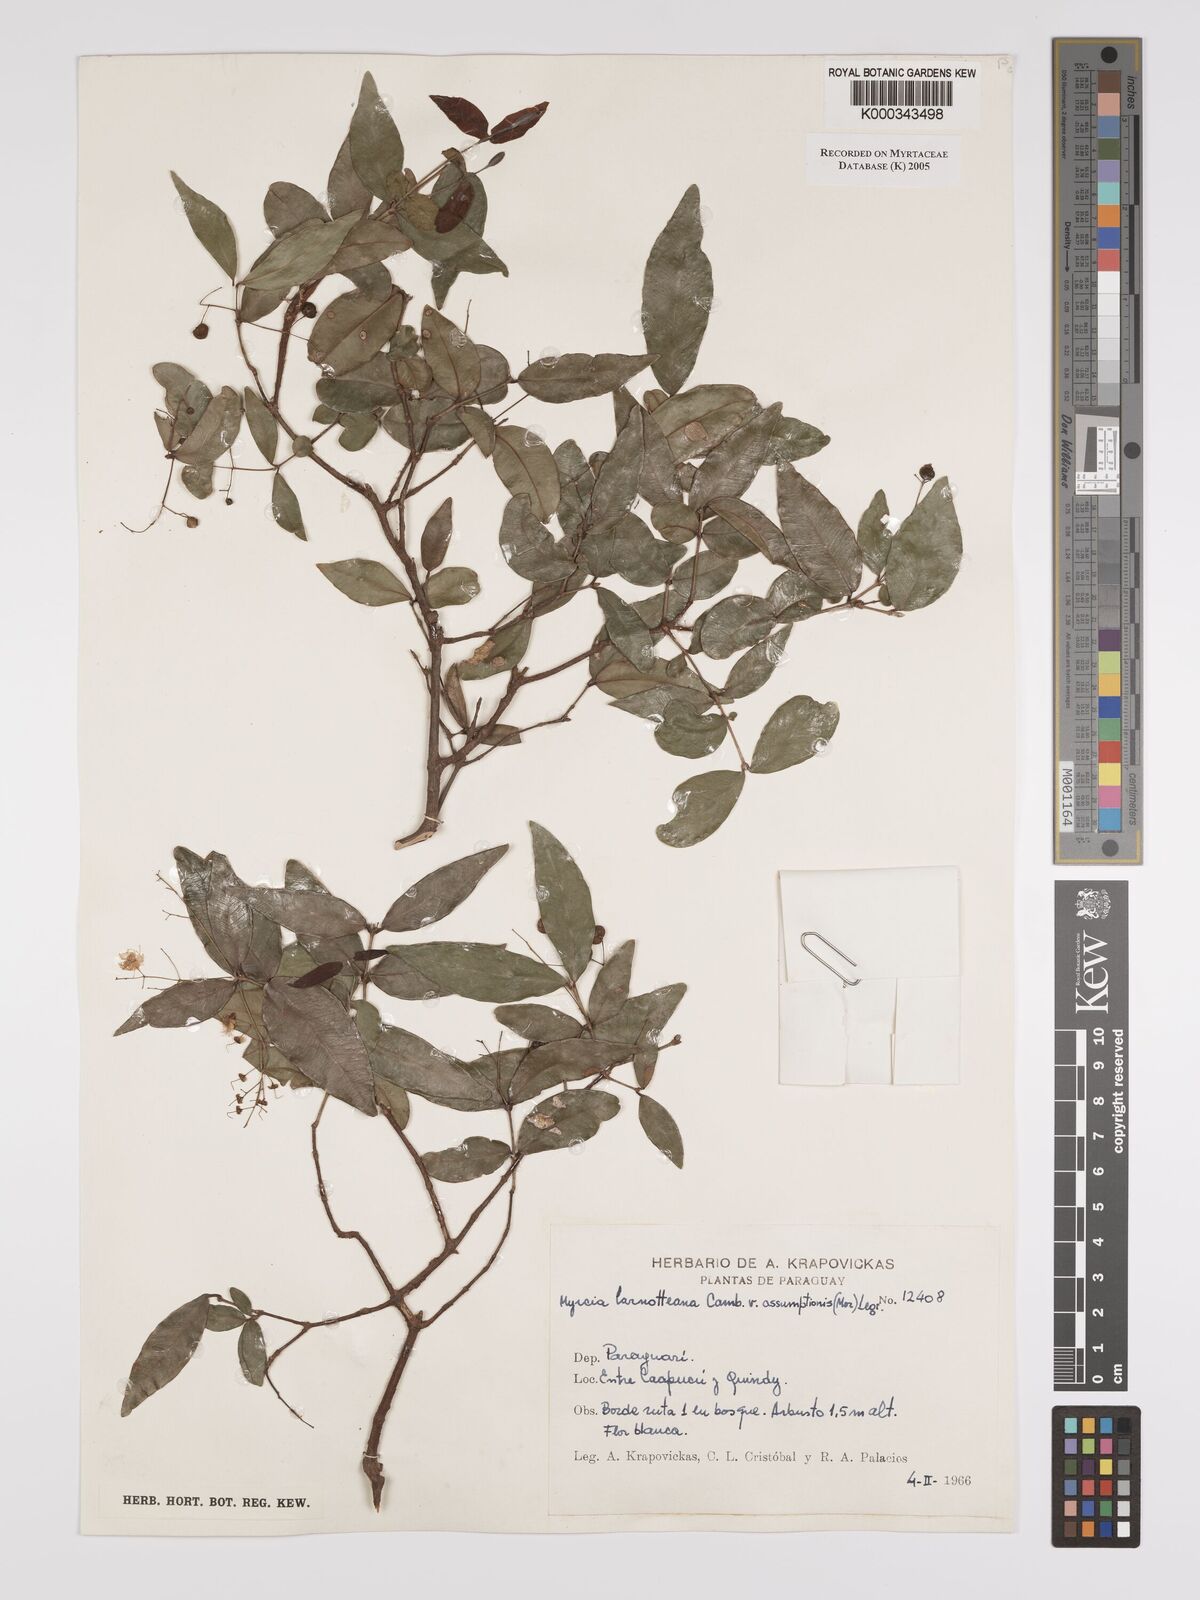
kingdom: Plantae
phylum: Tracheophyta
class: Magnoliopsida
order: Myrtales
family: Myrtaceae
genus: Myrcia
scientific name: Myrcia laruotteana
